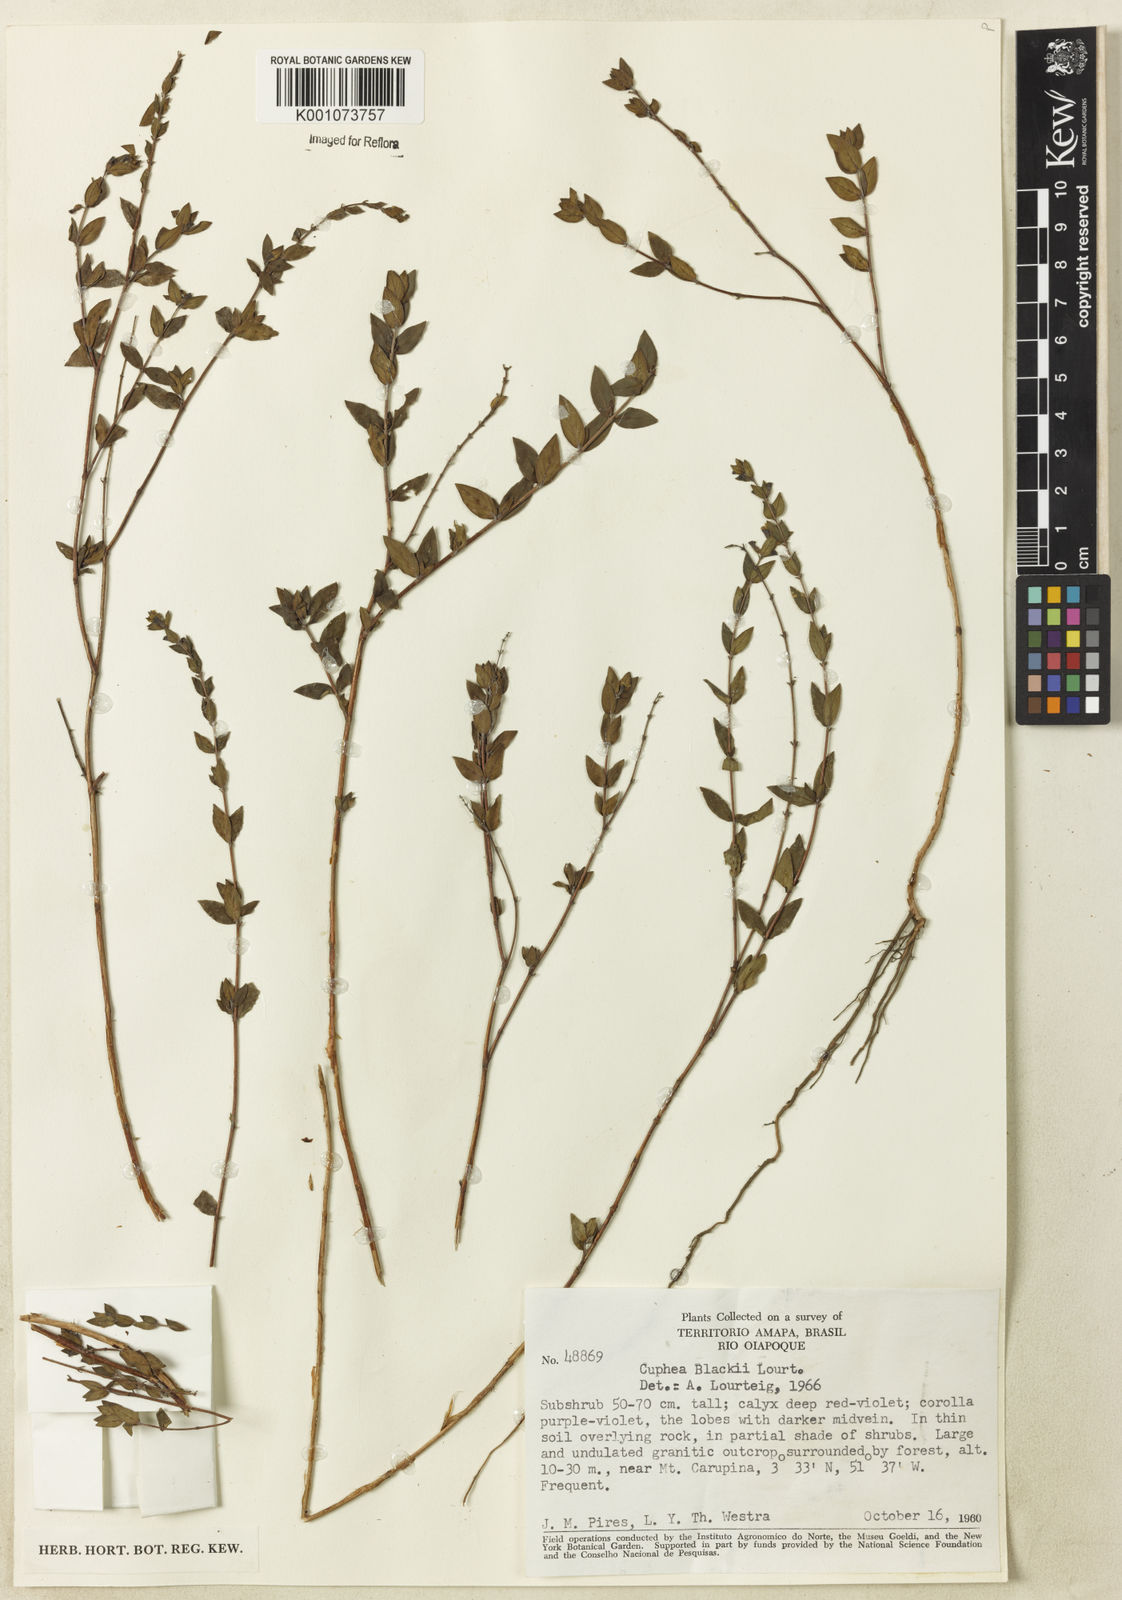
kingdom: Plantae
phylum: Tracheophyta
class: Magnoliopsida
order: Myrtales
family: Lythraceae
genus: Cuphea
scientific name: Cuphea blackii
